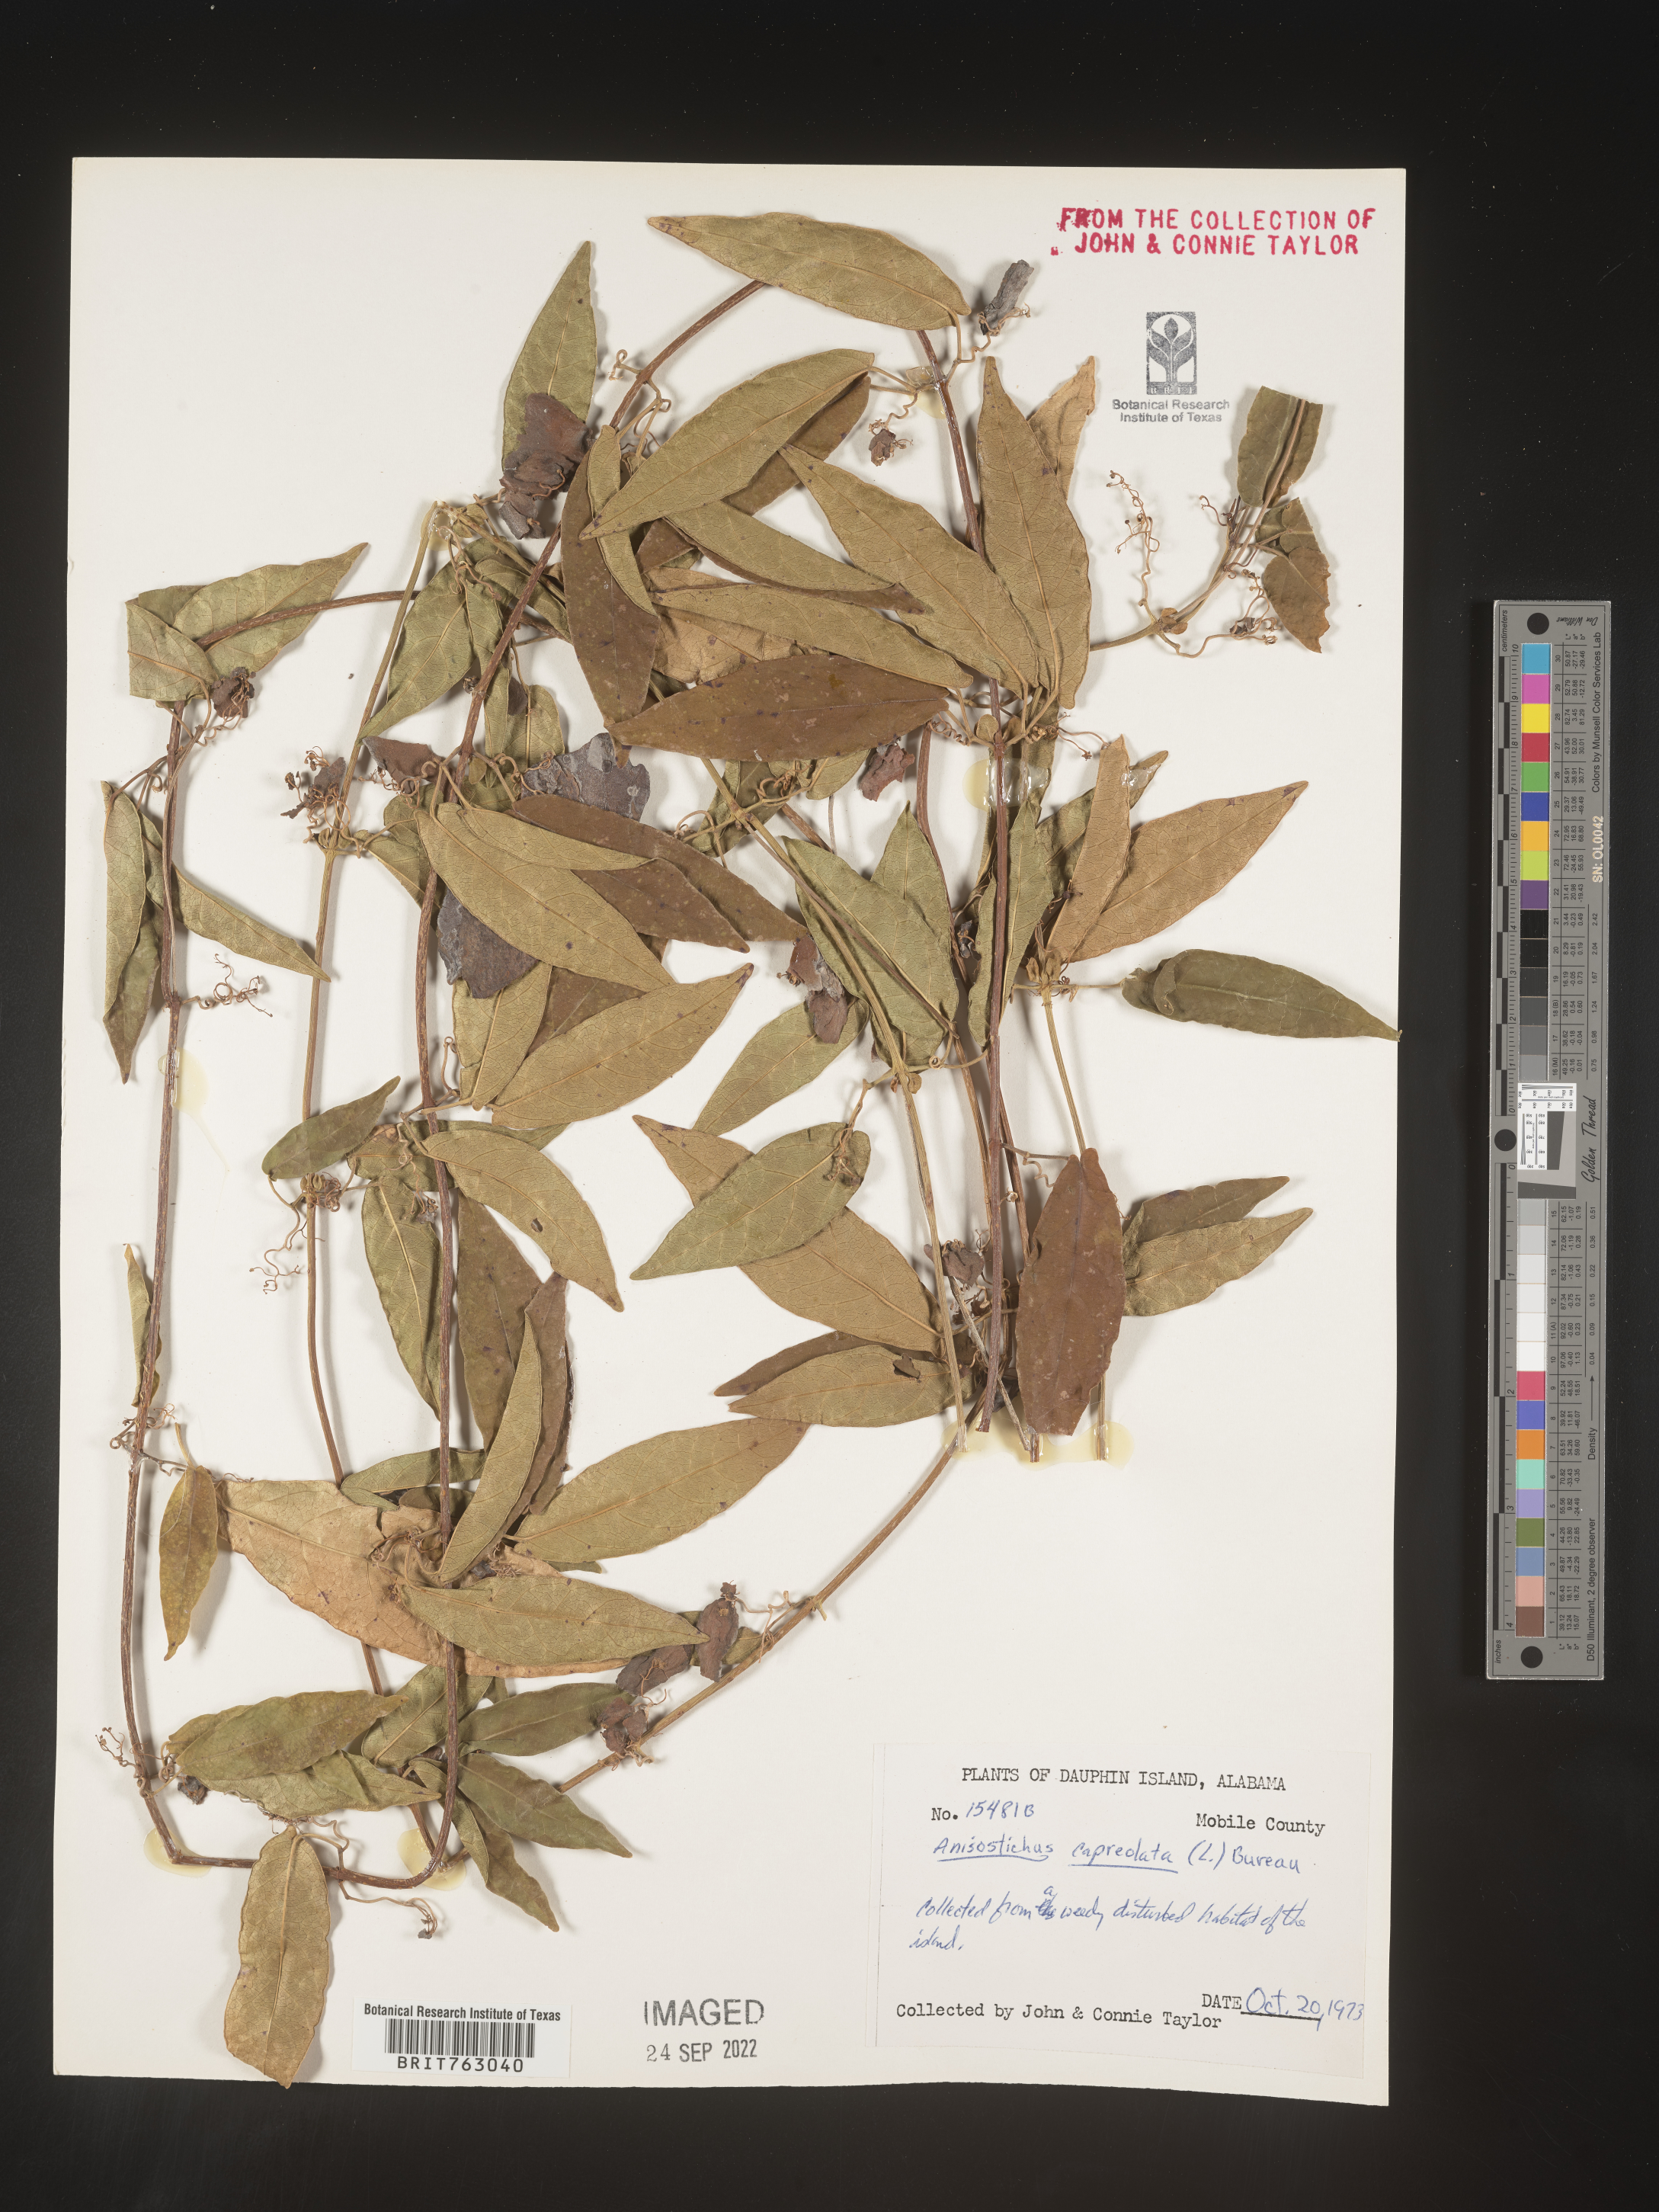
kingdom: Plantae
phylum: Tracheophyta
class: Magnoliopsida
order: Lamiales
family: Bignoniaceae
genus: Bignonia
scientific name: Bignonia capreolata
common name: Crossvine
